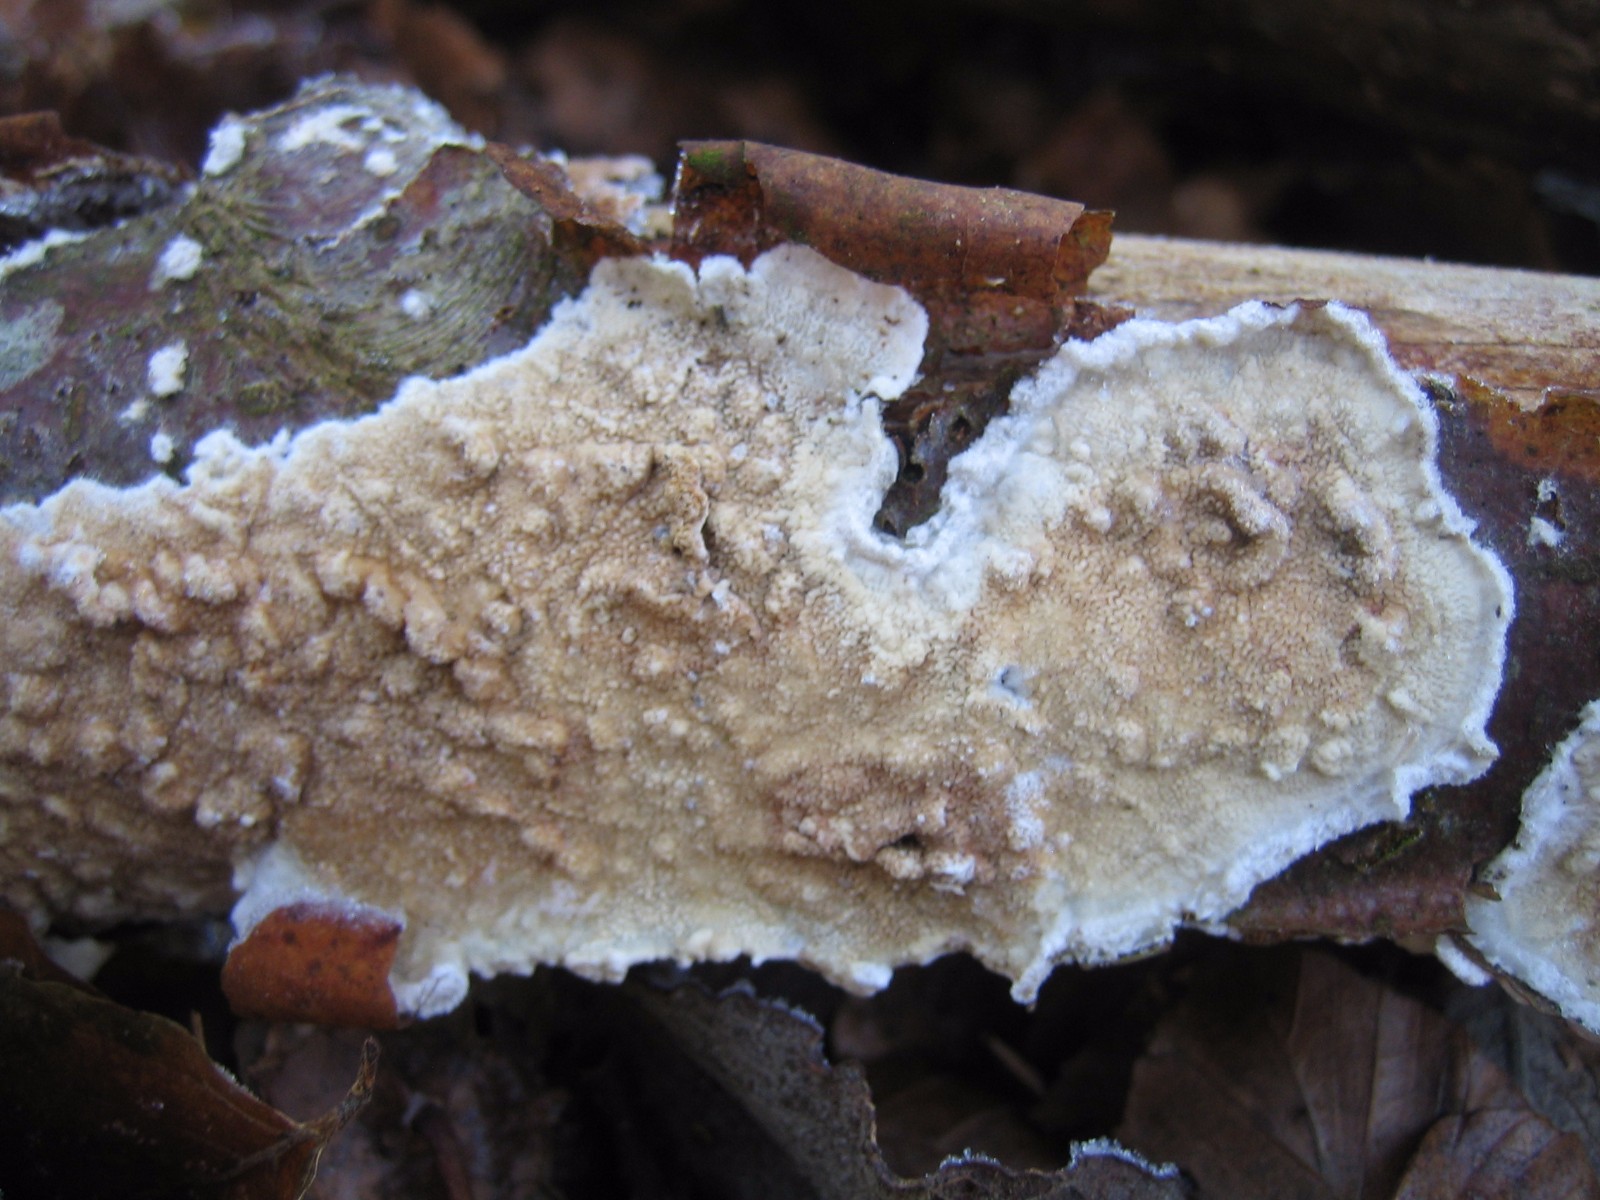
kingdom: Fungi
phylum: Basidiomycota
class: Agaricomycetes
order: Polyporales
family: Irpicaceae
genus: Byssomerulius
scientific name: Byssomerulius corium
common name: læder-åresvamp
